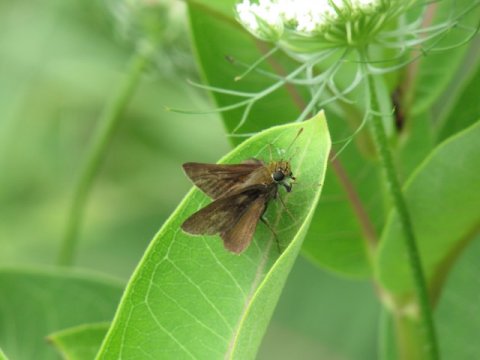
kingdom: Animalia
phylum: Arthropoda
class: Insecta
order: Lepidoptera
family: Hesperiidae
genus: Euphyes
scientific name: Euphyes vestris
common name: Dun Skipper
